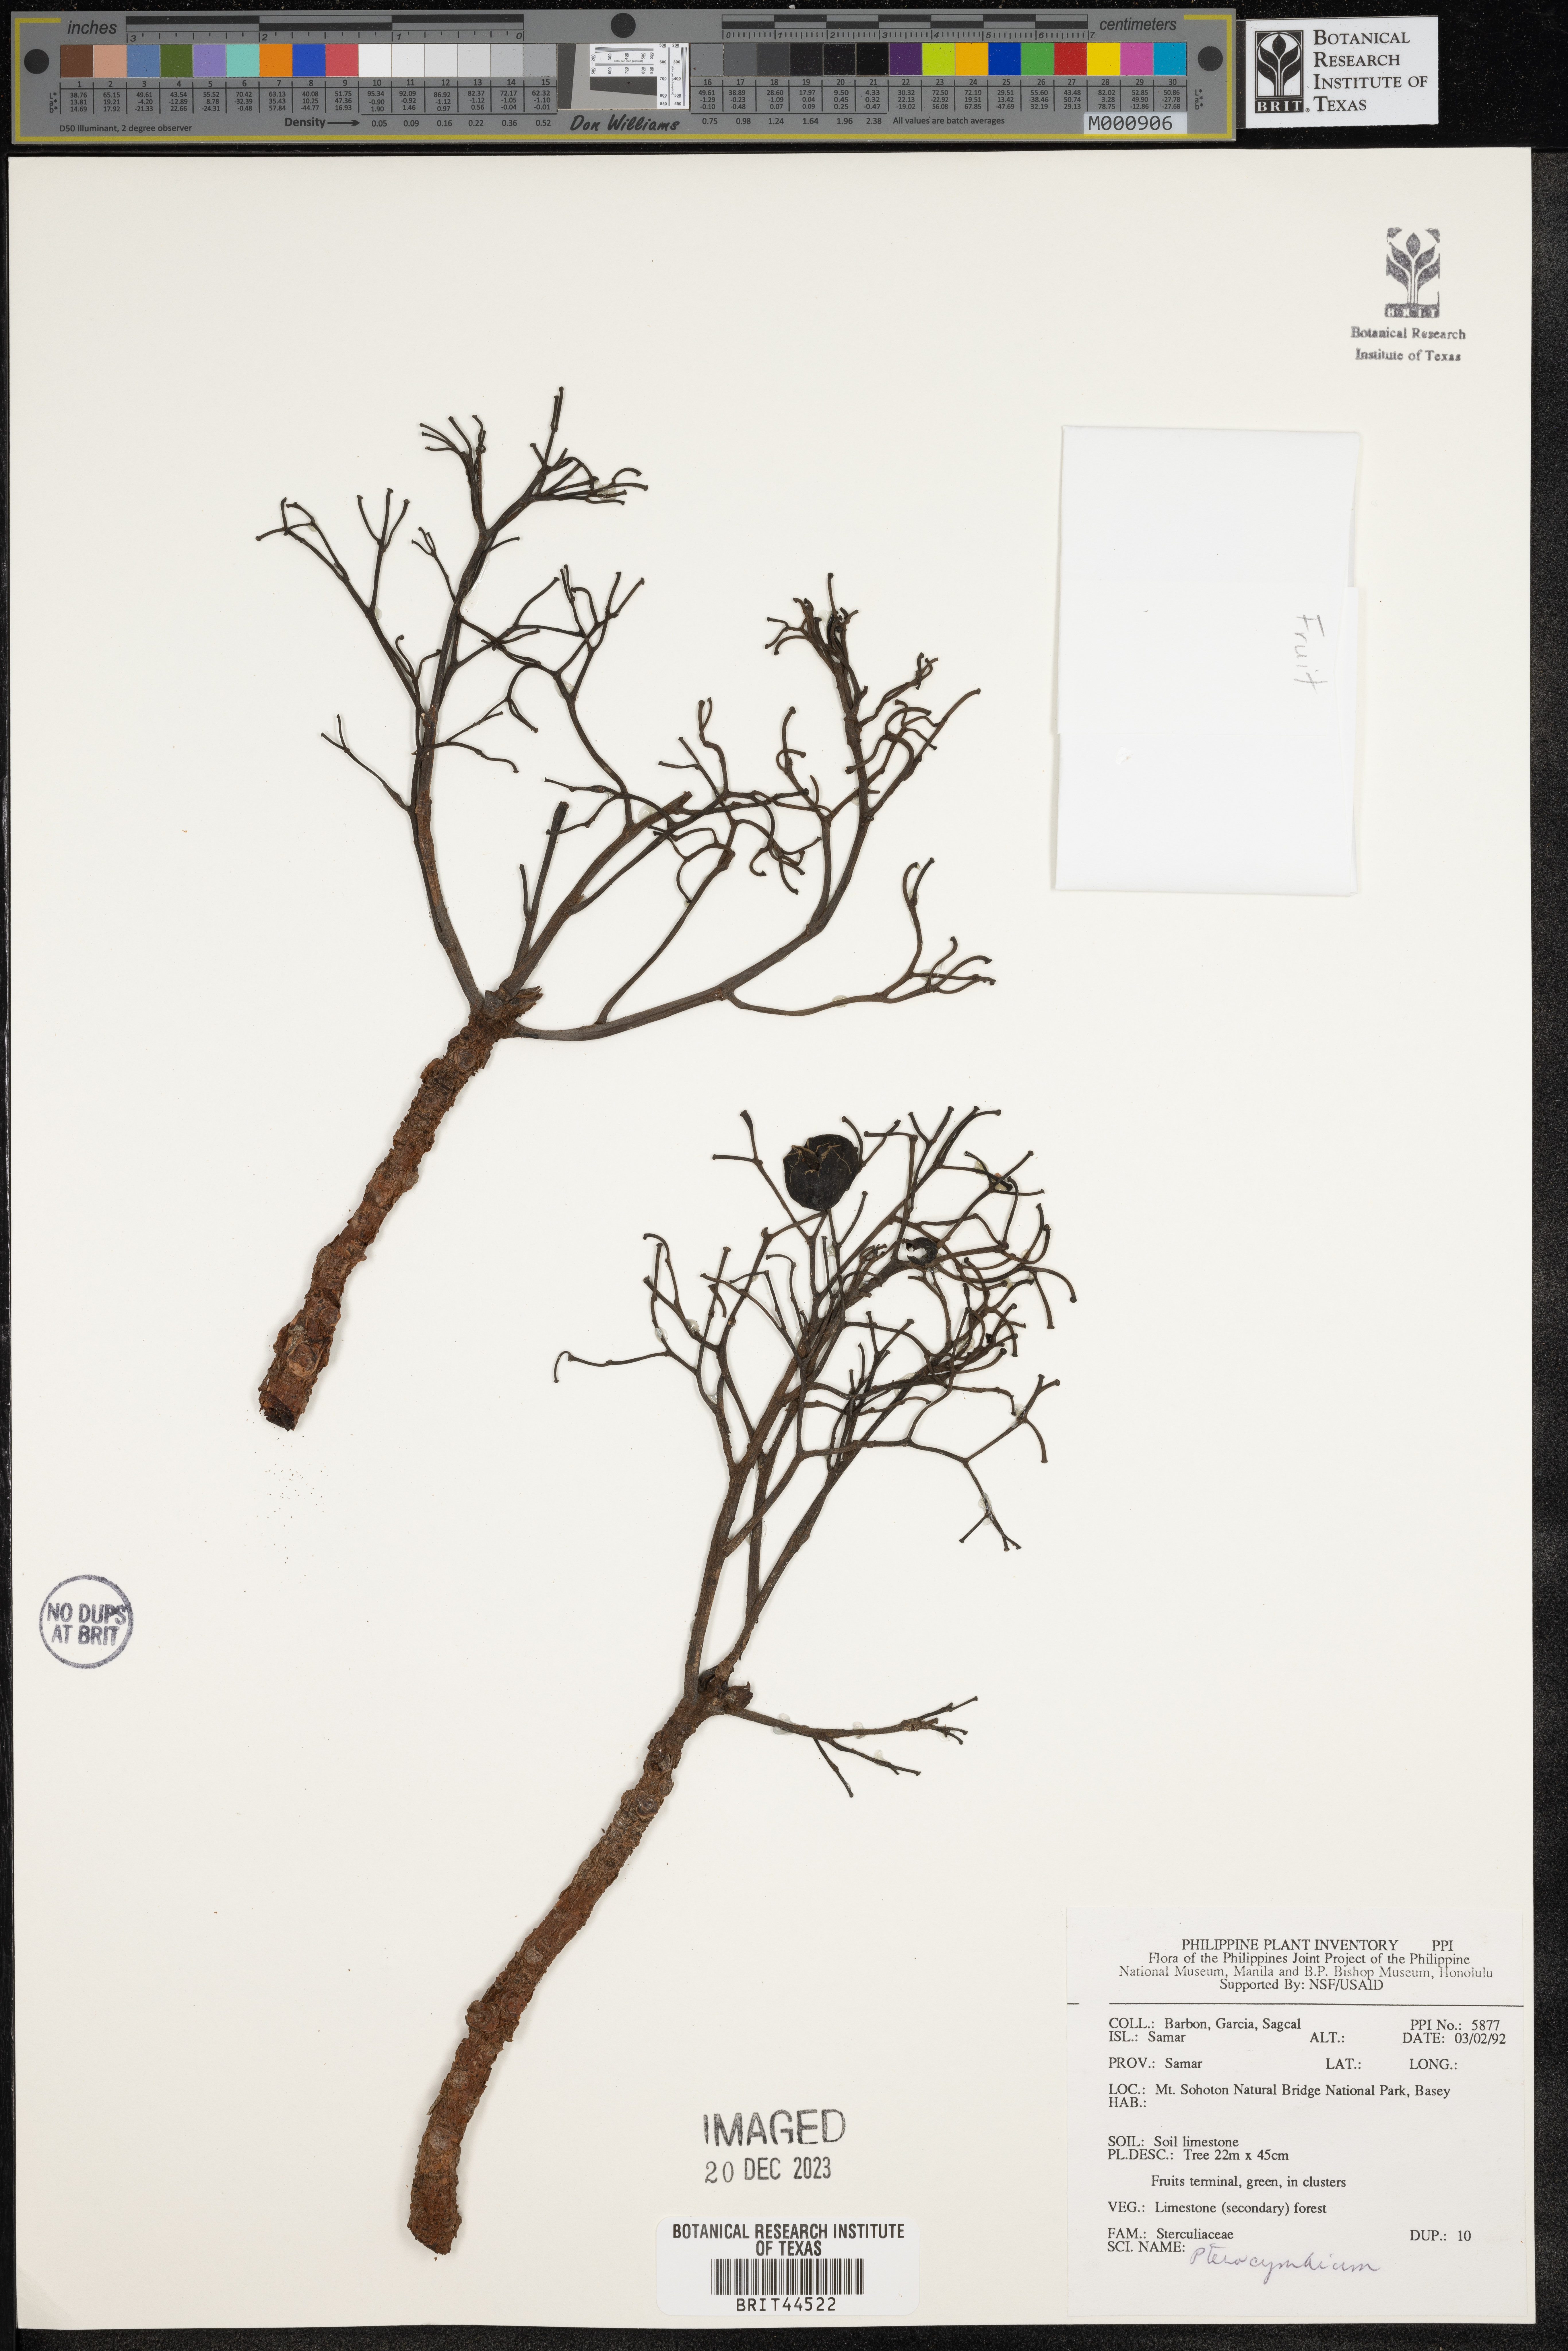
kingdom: Plantae
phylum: Tracheophyta
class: Magnoliopsida
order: Malvales
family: Malvaceae
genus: Pterocymbium
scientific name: Pterocymbium
